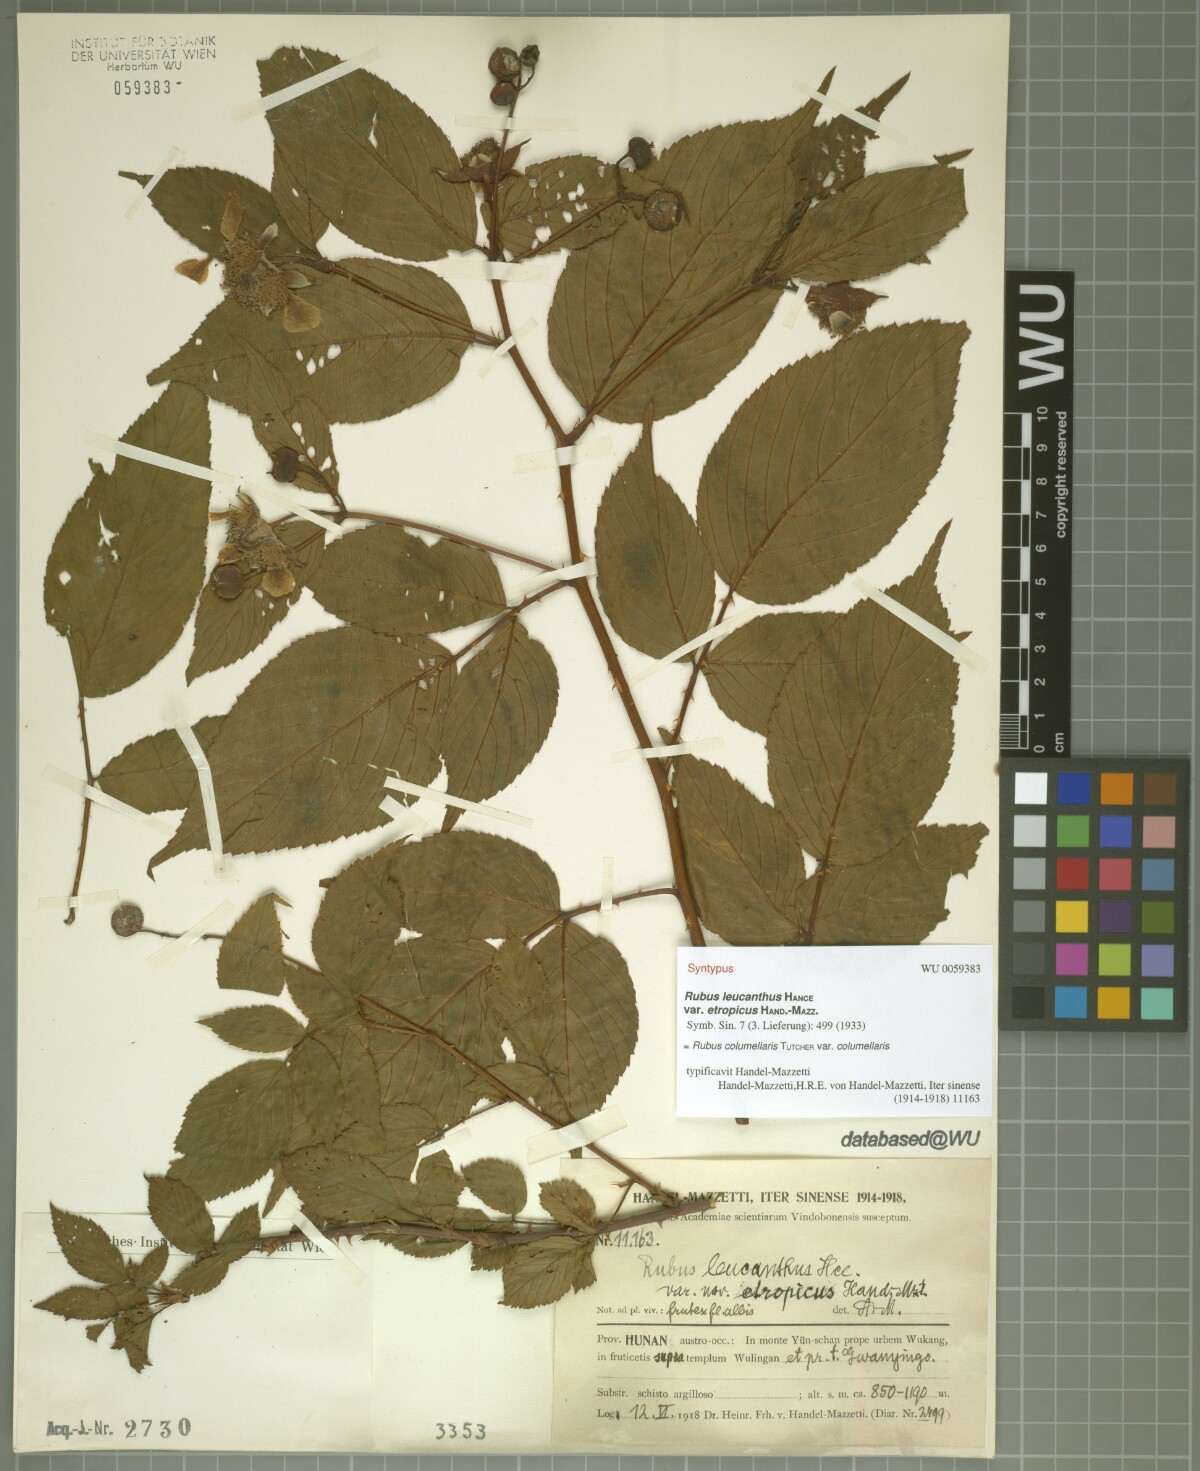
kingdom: Plantae
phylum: Tracheophyta
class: Magnoliopsida
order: Rosales
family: Rosaceae
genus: Rubus
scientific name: Rubus columellaris
